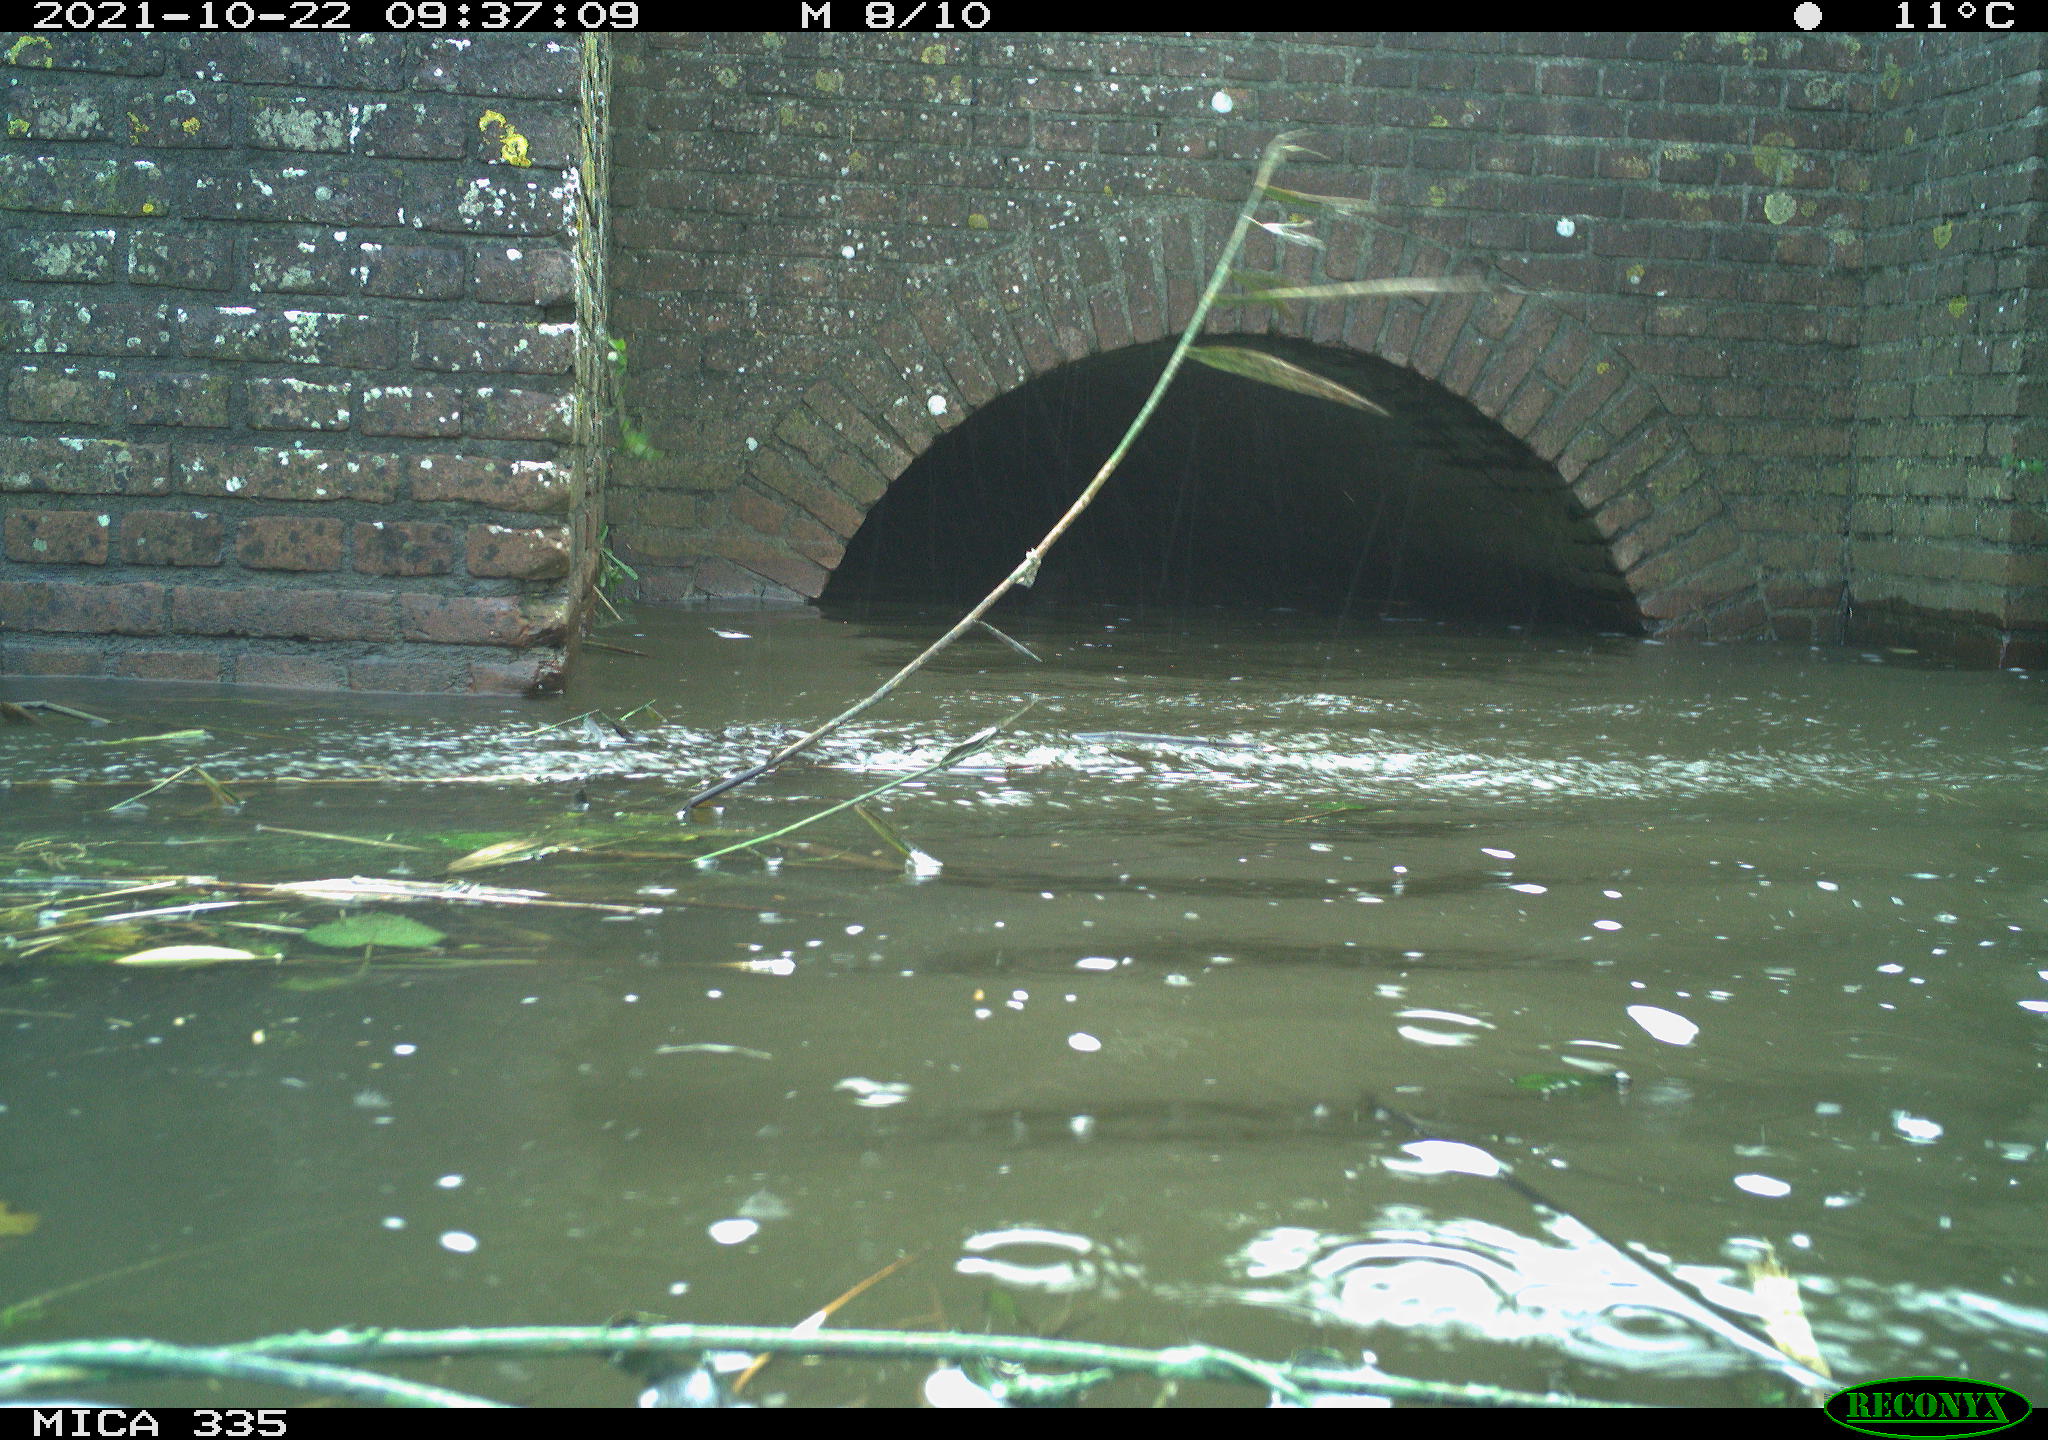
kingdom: Animalia
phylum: Chordata
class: Aves
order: Anseriformes
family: Anatidae
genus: Anas
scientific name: Anas platyrhynchos
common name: Mallard
